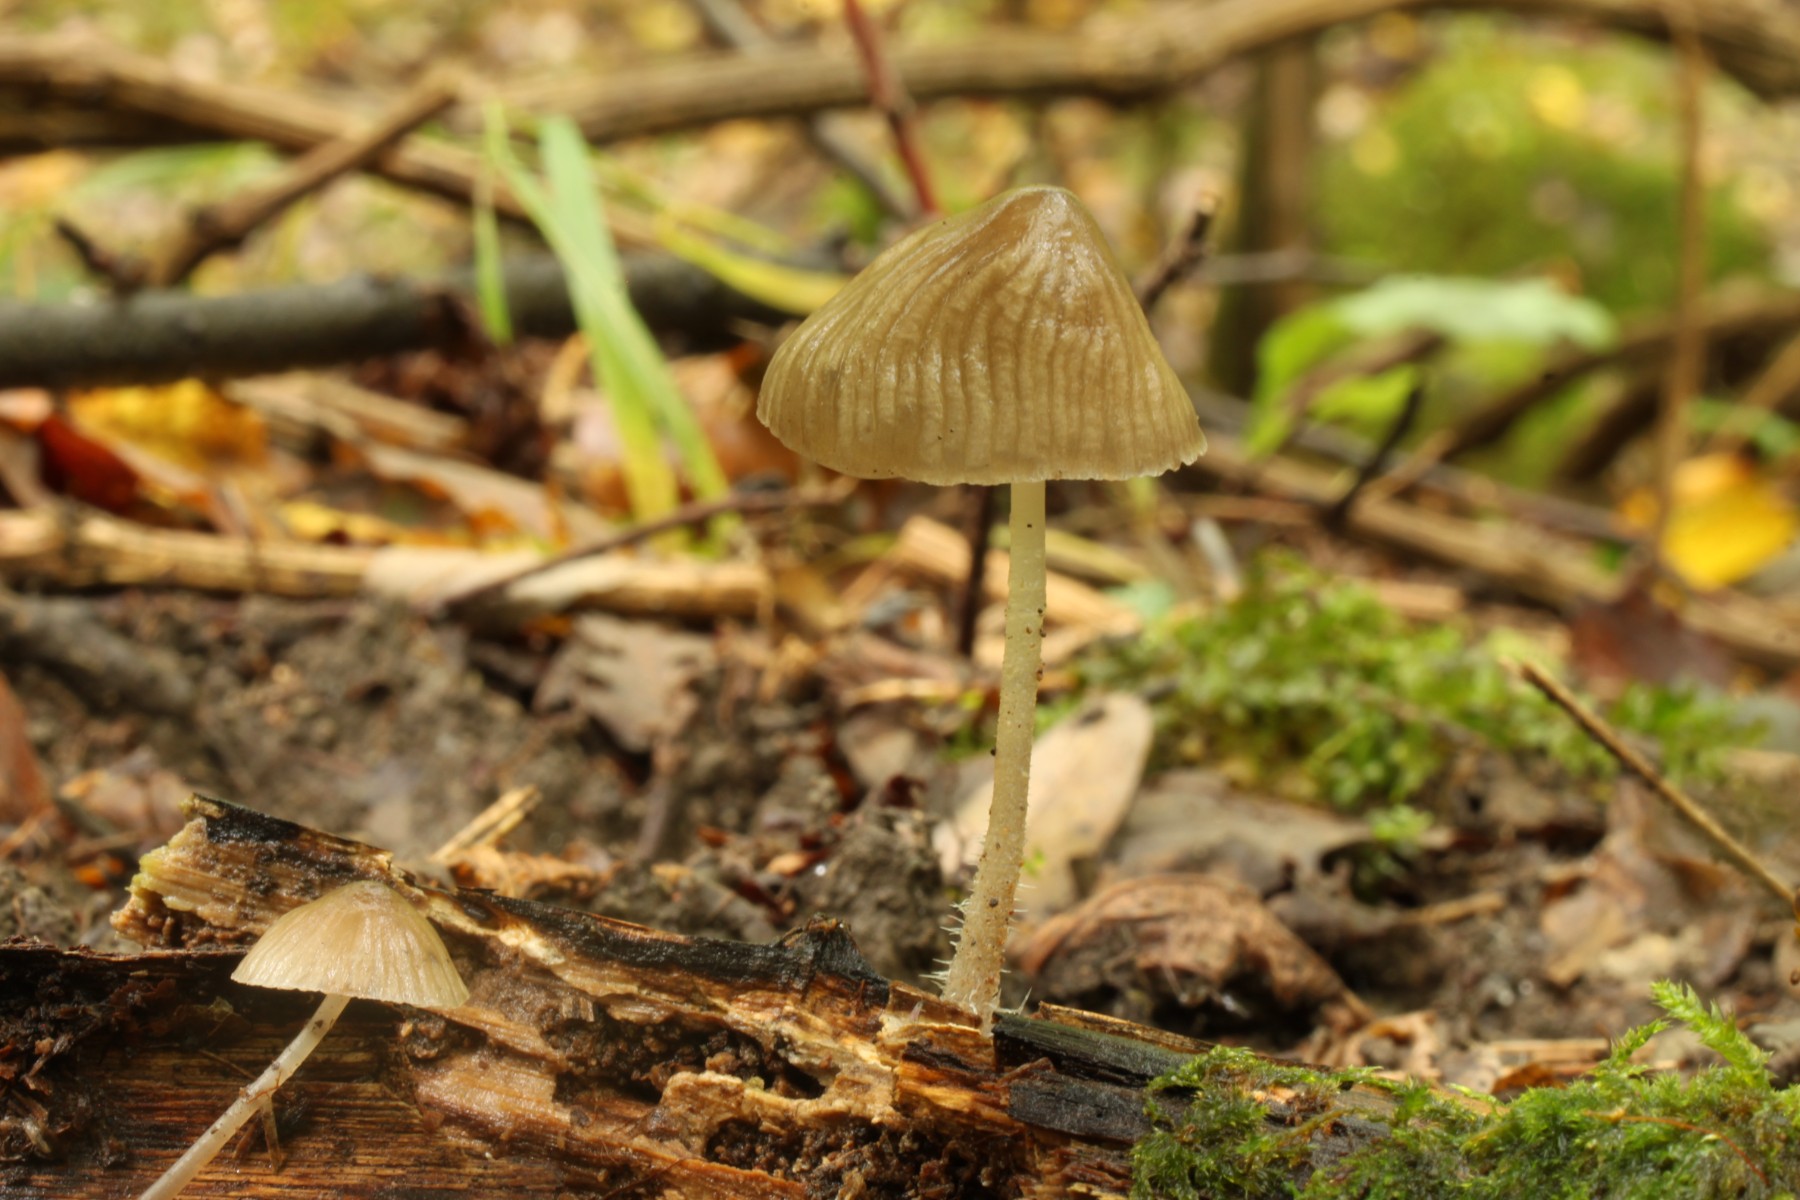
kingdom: Fungi
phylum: Basidiomycota
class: Agaricomycetes
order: Agaricales
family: Mycenaceae
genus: Mycena
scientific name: Mycena
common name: huesvamp
